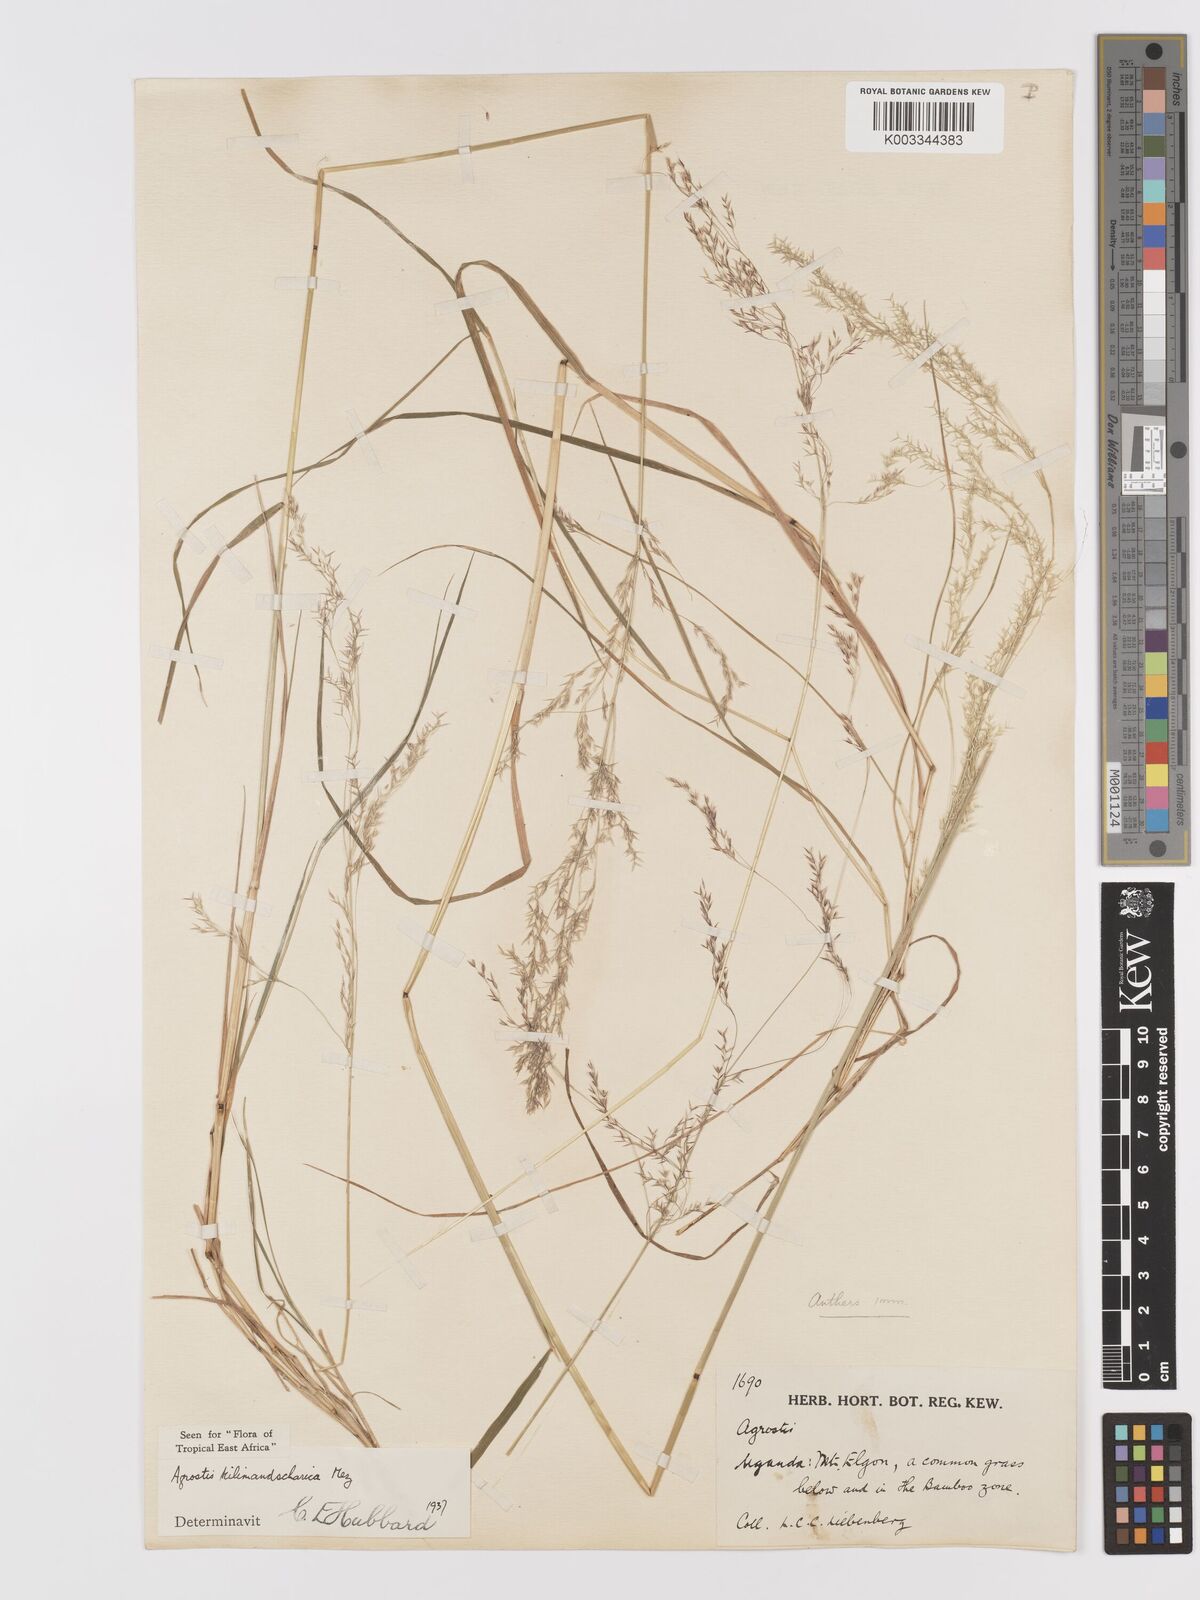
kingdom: Plantae
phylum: Tracheophyta
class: Liliopsida
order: Poales
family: Poaceae
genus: Agrostis
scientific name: Agrostis kilimandscharica
